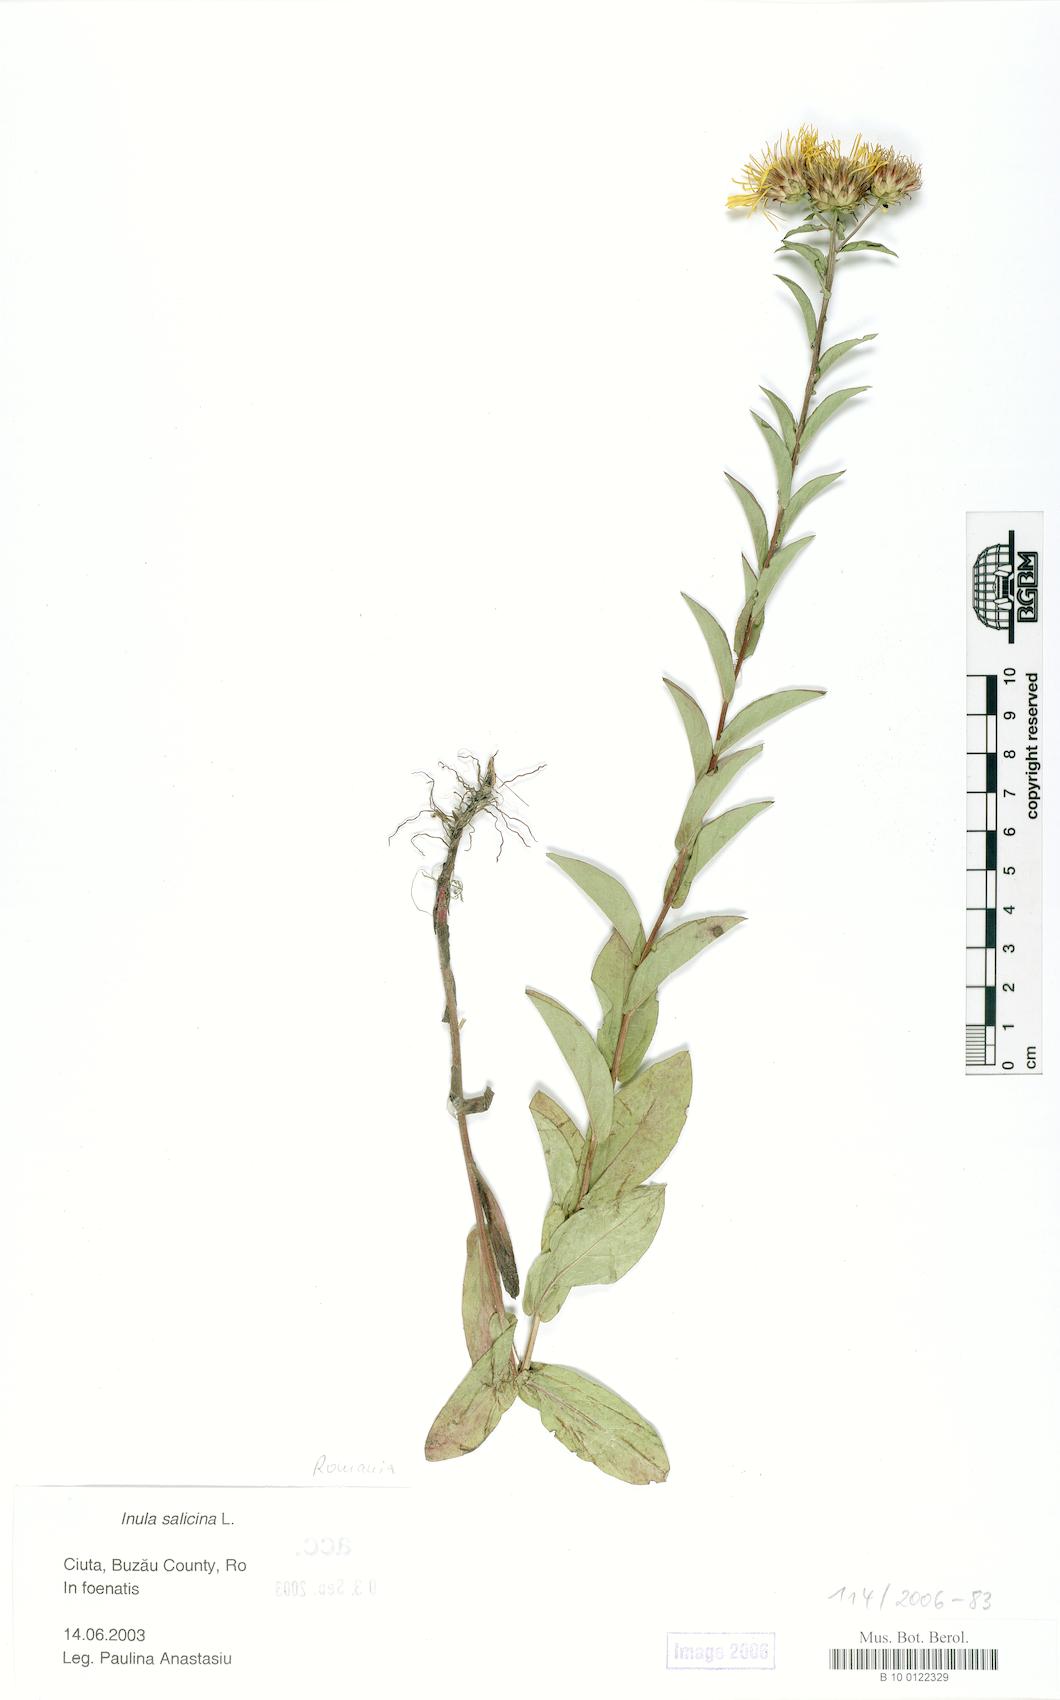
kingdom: Plantae
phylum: Tracheophyta
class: Magnoliopsida
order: Asterales
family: Asteraceae
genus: Pentanema
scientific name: Pentanema salicinum
